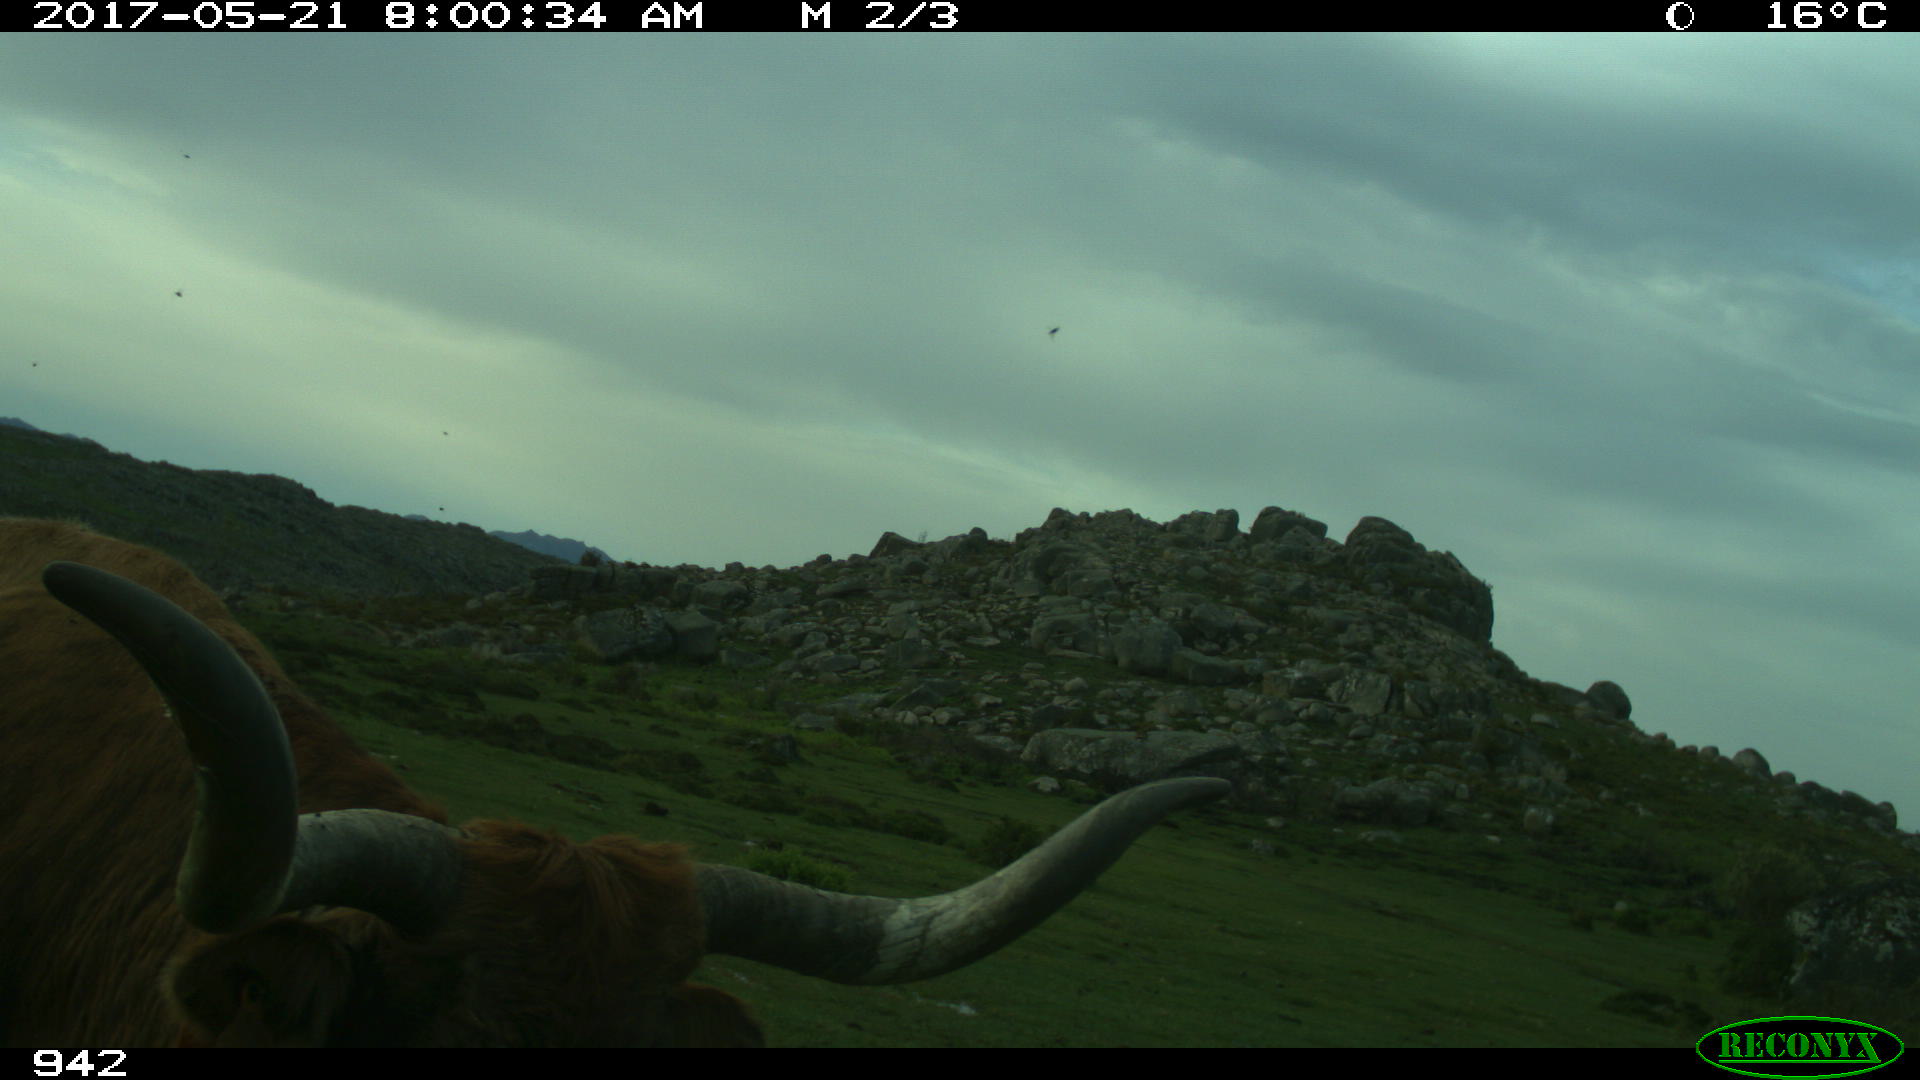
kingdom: Animalia
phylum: Chordata
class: Mammalia
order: Artiodactyla
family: Bovidae
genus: Bos
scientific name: Bos taurus
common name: Domesticated cattle
